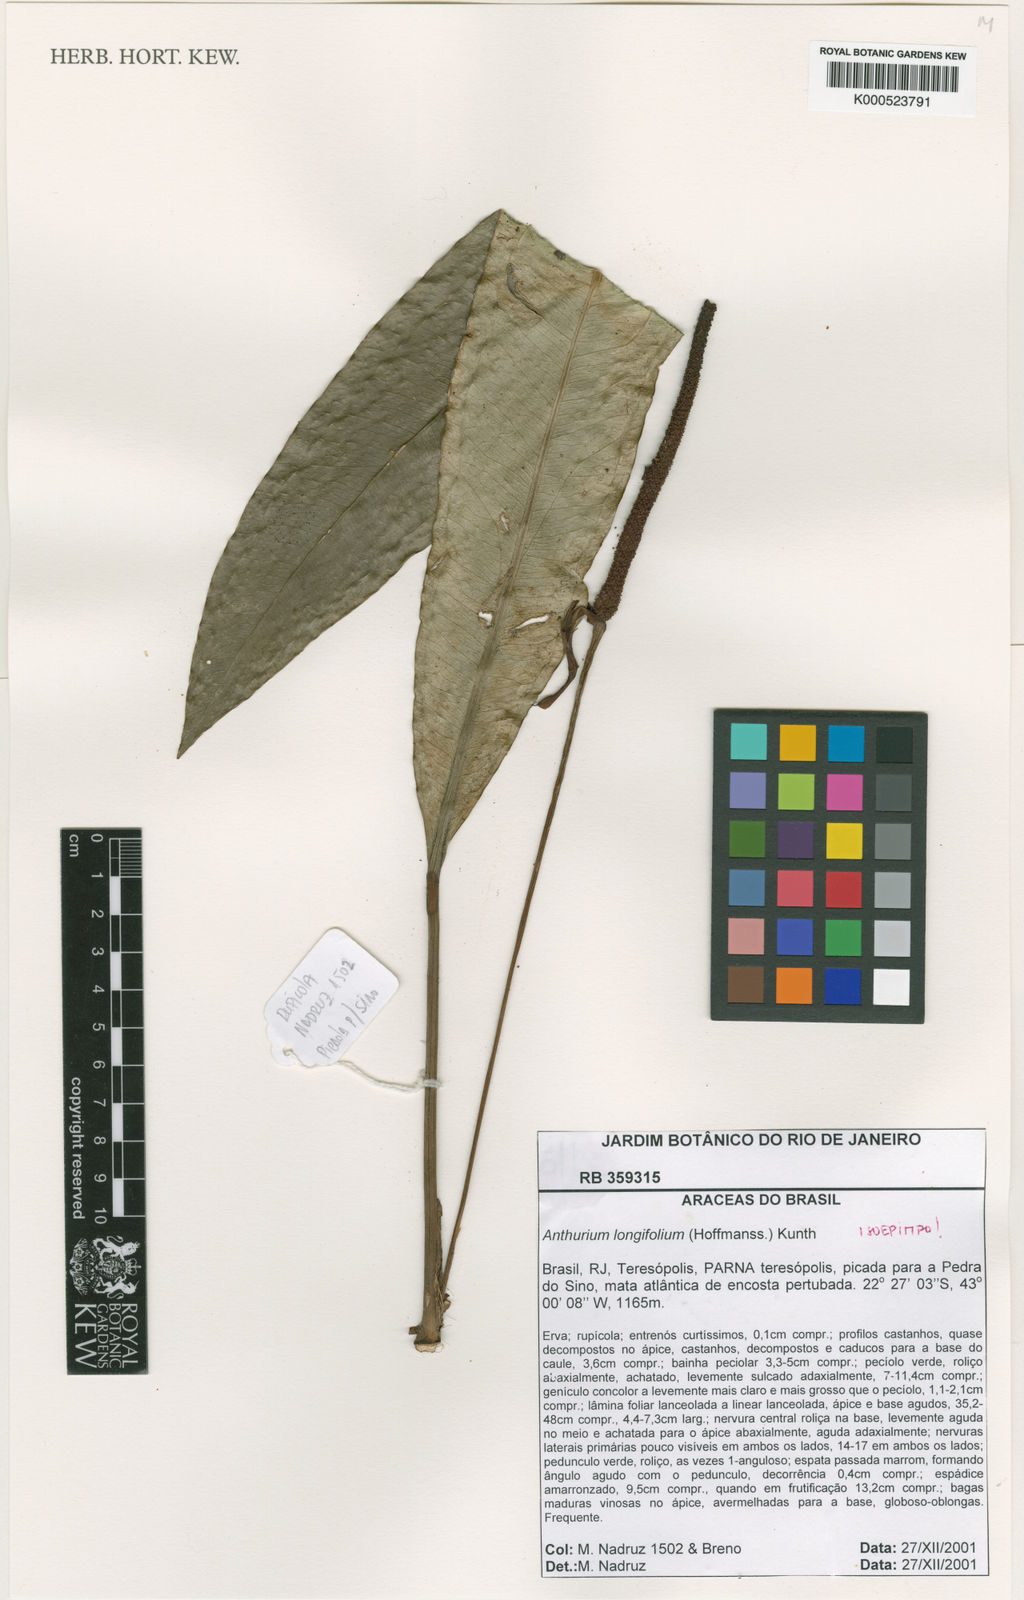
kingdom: Plantae
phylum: Tracheophyta
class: Liliopsida
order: Alismatales
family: Araceae
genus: Anthurium
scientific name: Anthurium longifolium
